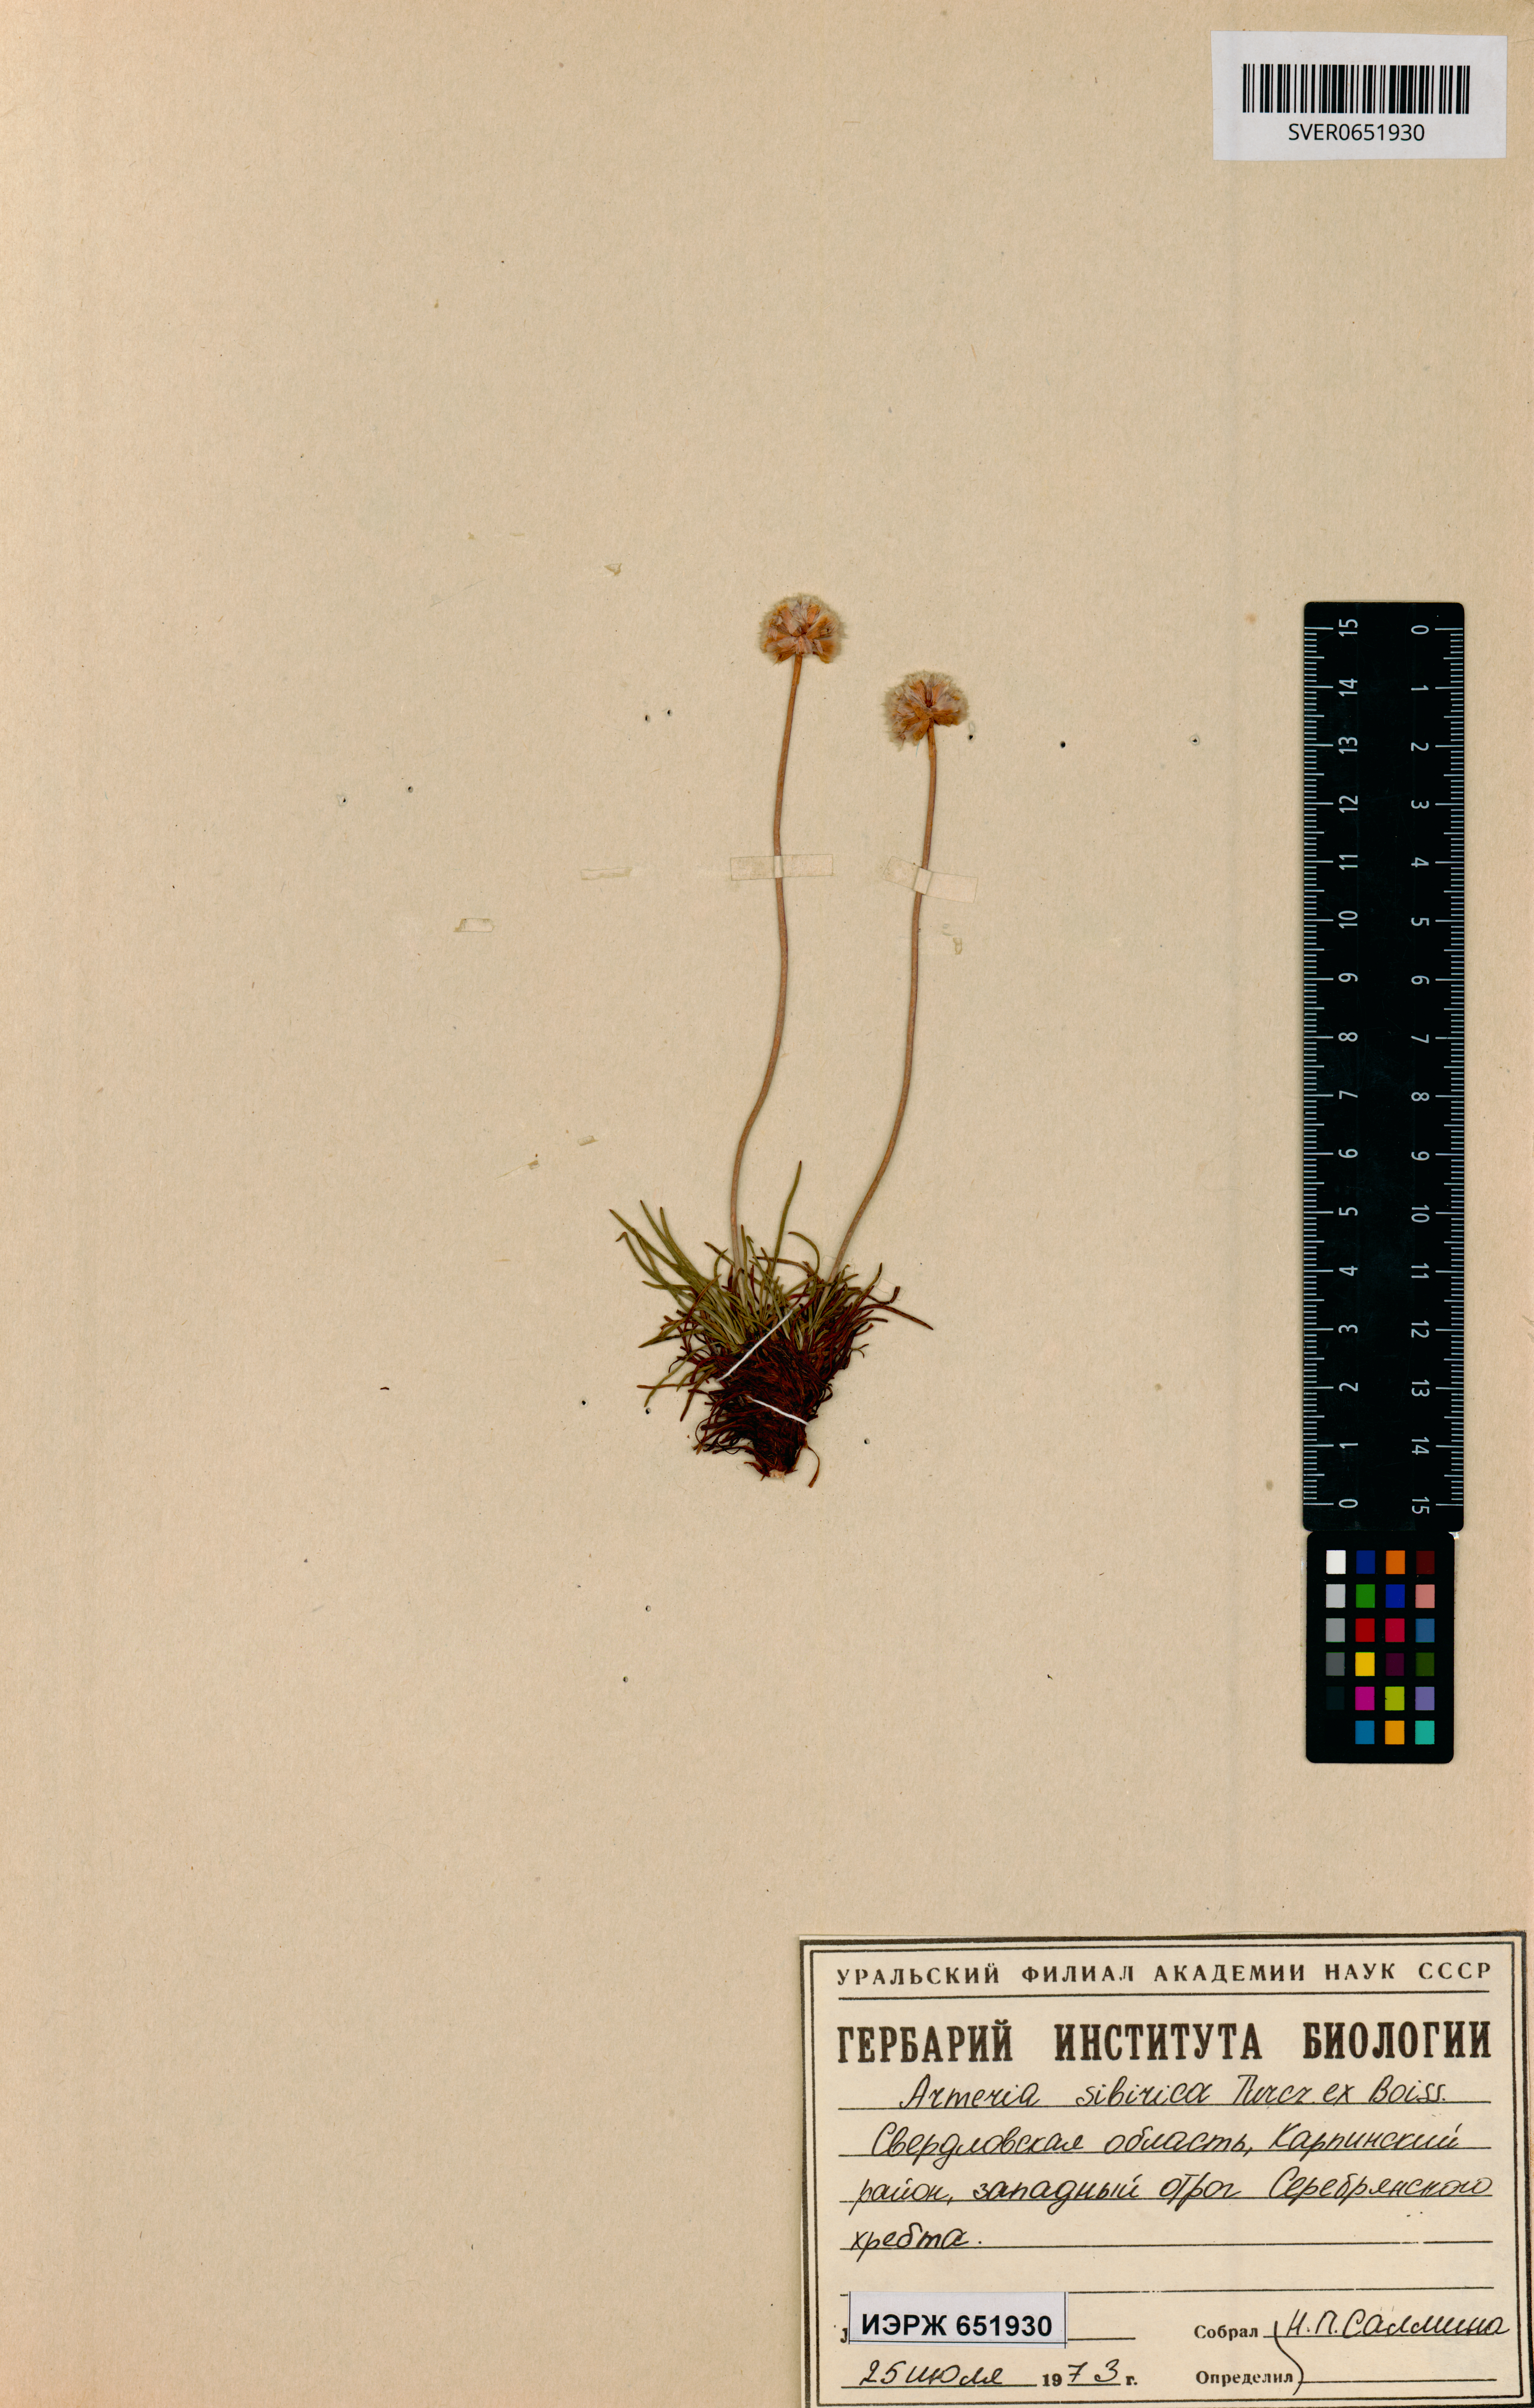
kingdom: Plantae
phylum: Tracheophyta
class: Magnoliopsida
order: Caryophyllales
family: Plumbaginaceae
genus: Armeria
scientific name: Armeria maritima
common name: Thrift
